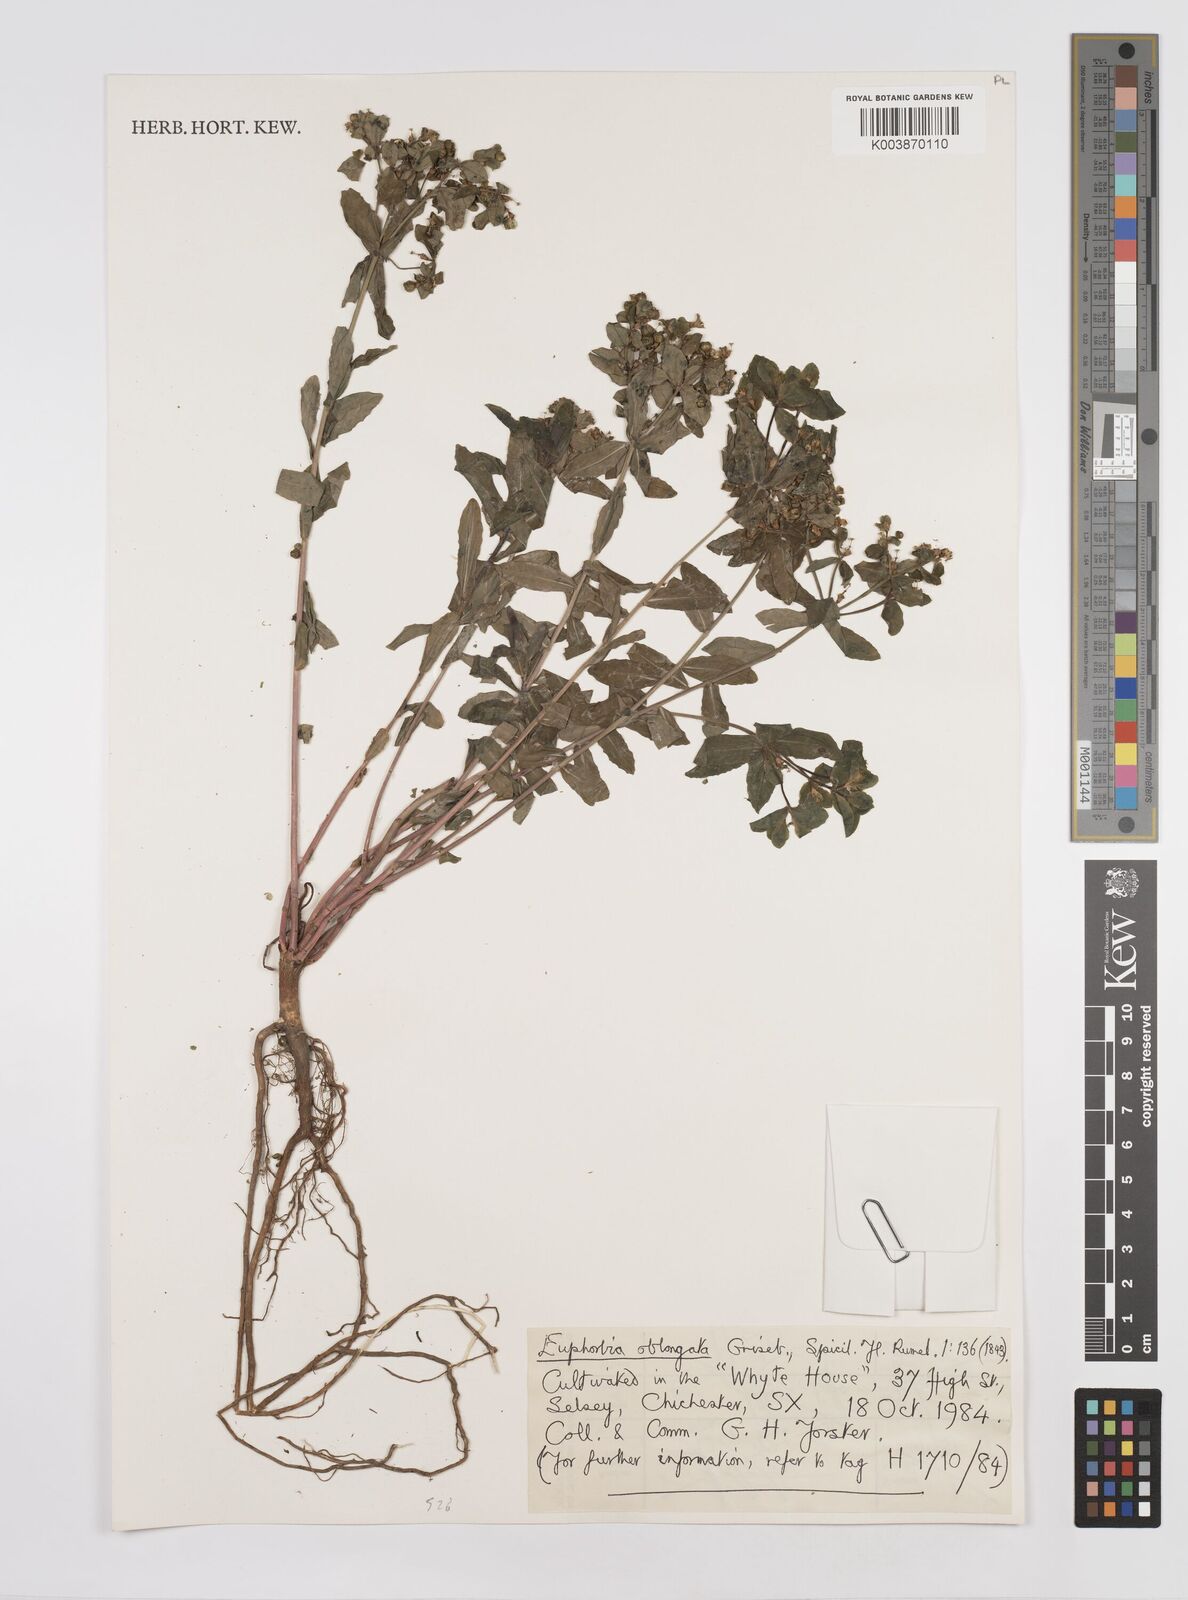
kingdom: Plantae
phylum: Tracheophyta
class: Magnoliopsida
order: Malpighiales
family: Euphorbiaceae
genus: Euphorbia
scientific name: Euphorbia stricta
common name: Upright spurge
